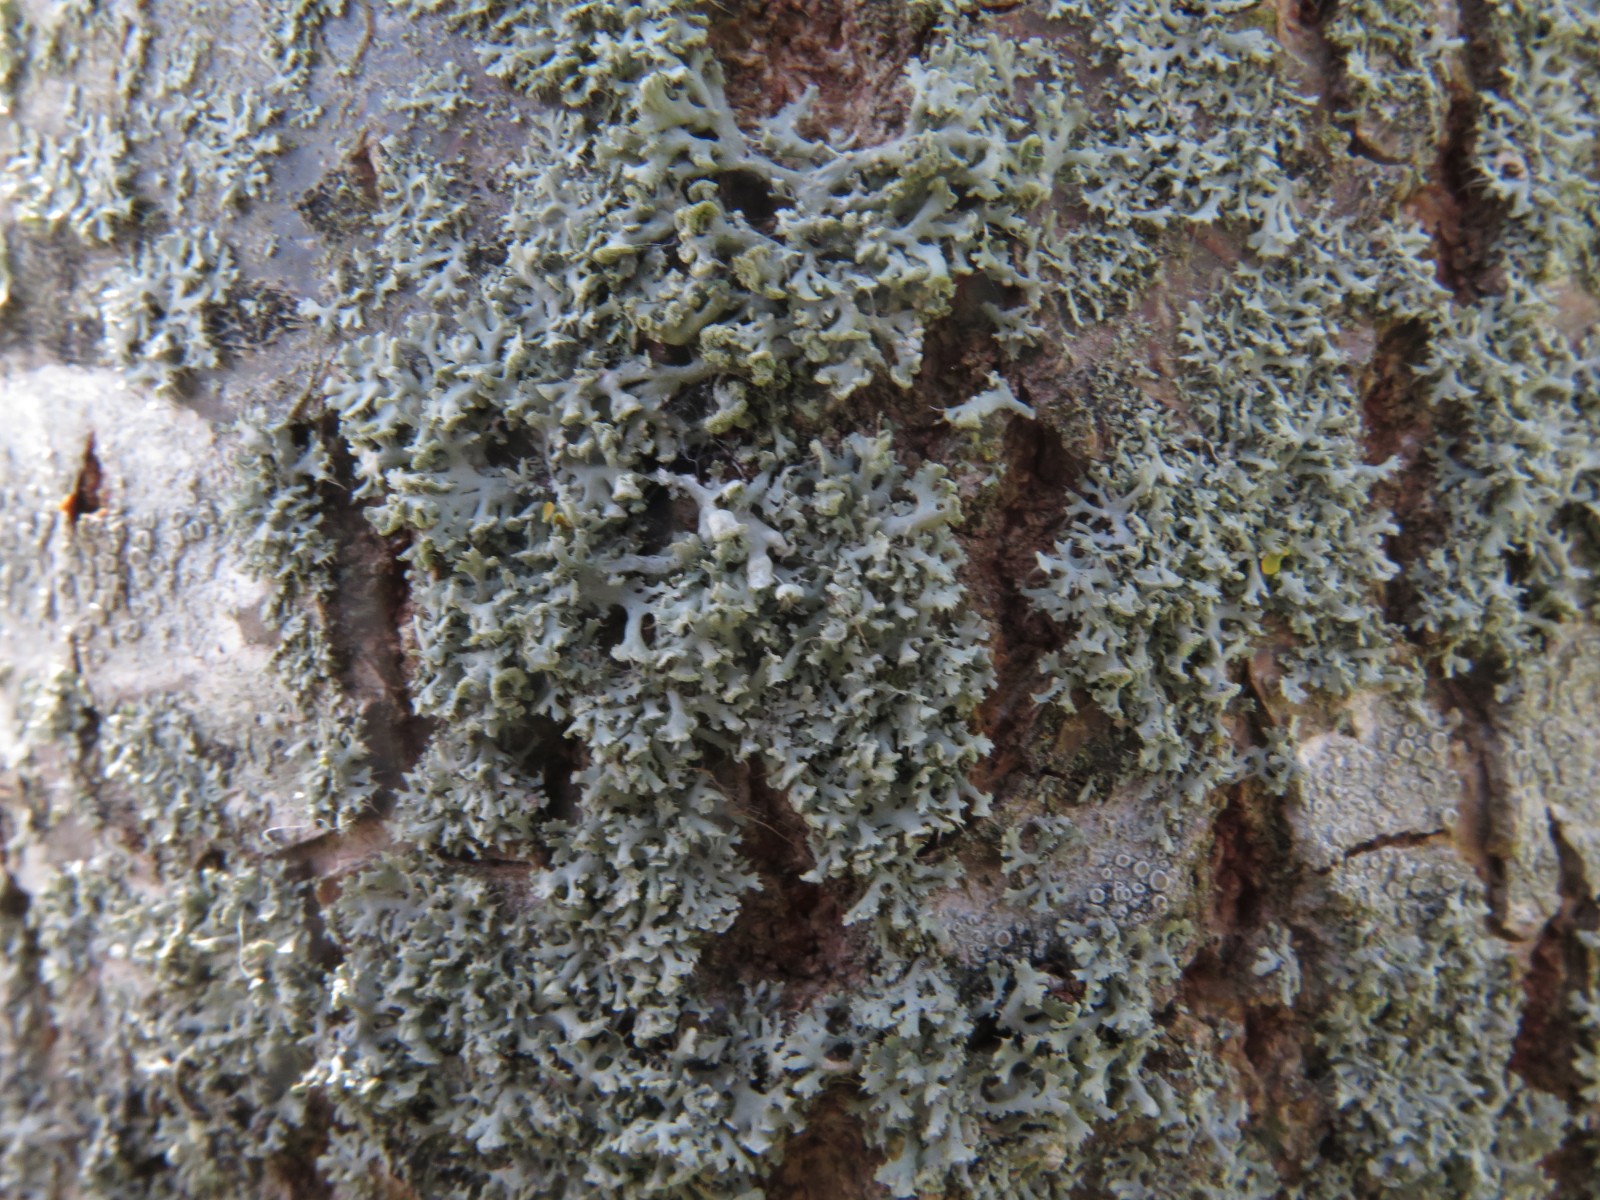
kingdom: Fungi
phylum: Ascomycota
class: Lecanoromycetes
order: Caliciales
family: Physciaceae
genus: Physcia
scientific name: Physcia adscendens
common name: hætte-rosetlav
